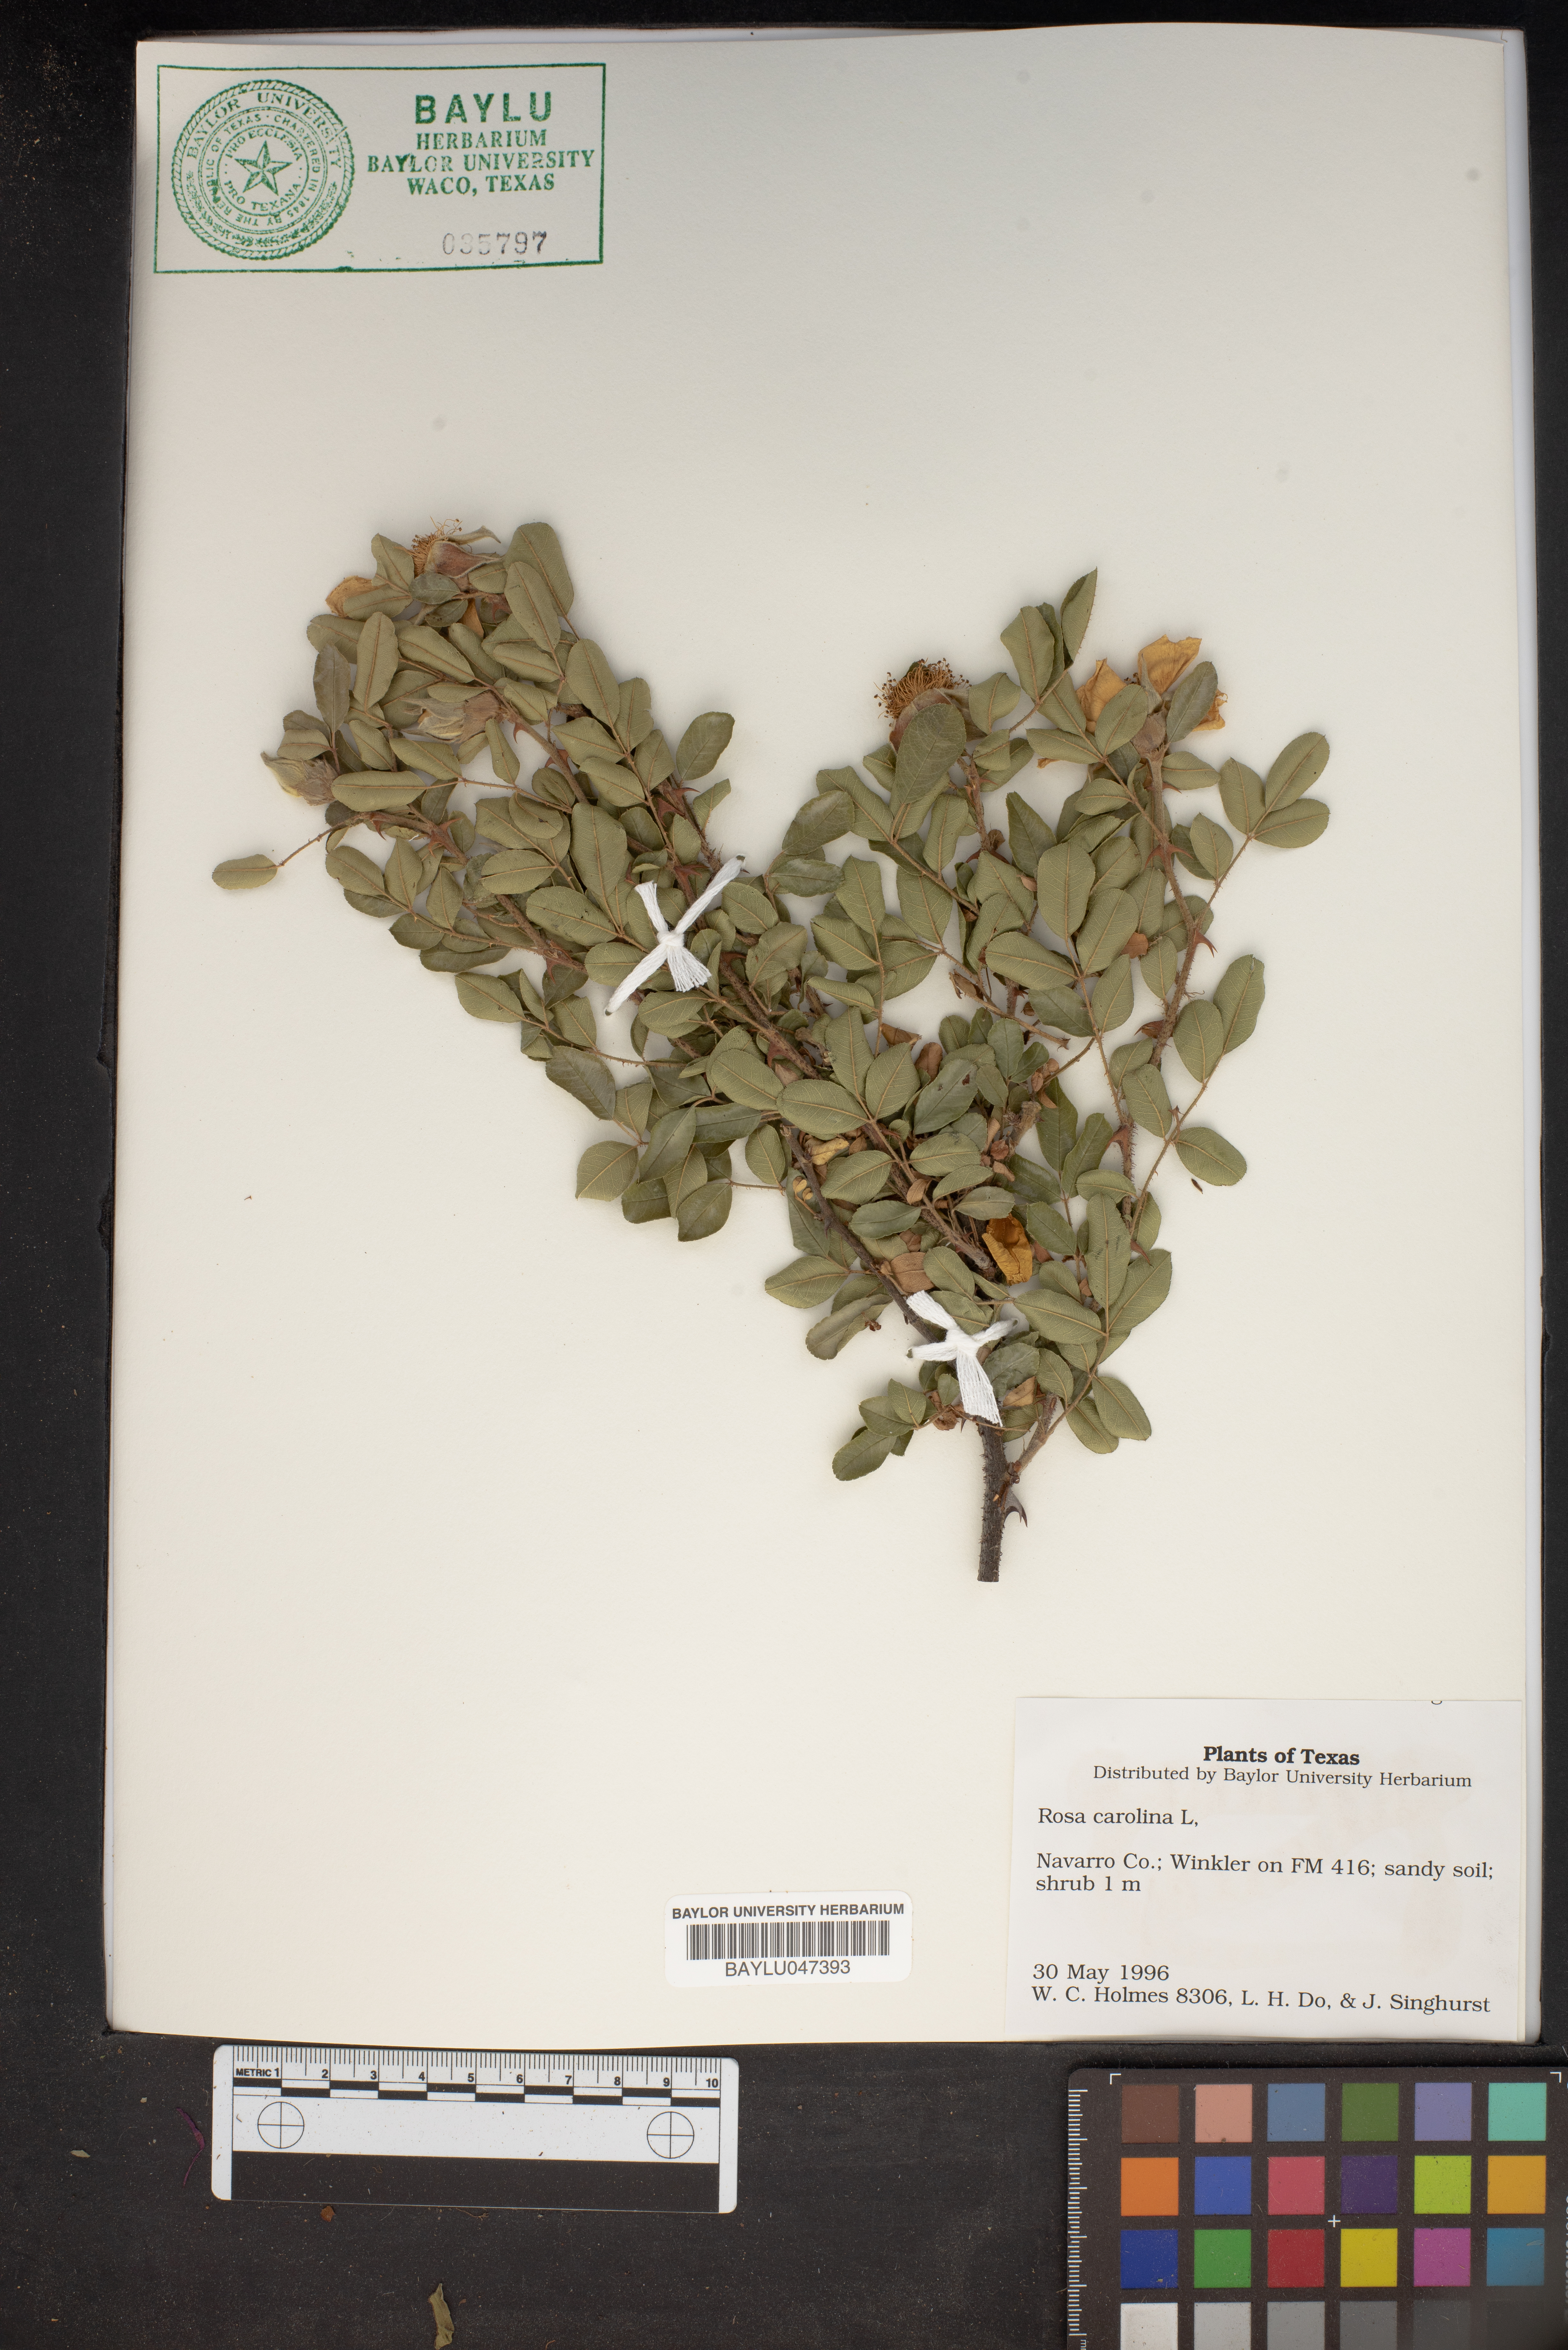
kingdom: Plantae
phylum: Tracheophyta
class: Magnoliopsida
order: Rosales
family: Rosaceae
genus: Rosa
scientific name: Rosa carolina
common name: Pasture rose
